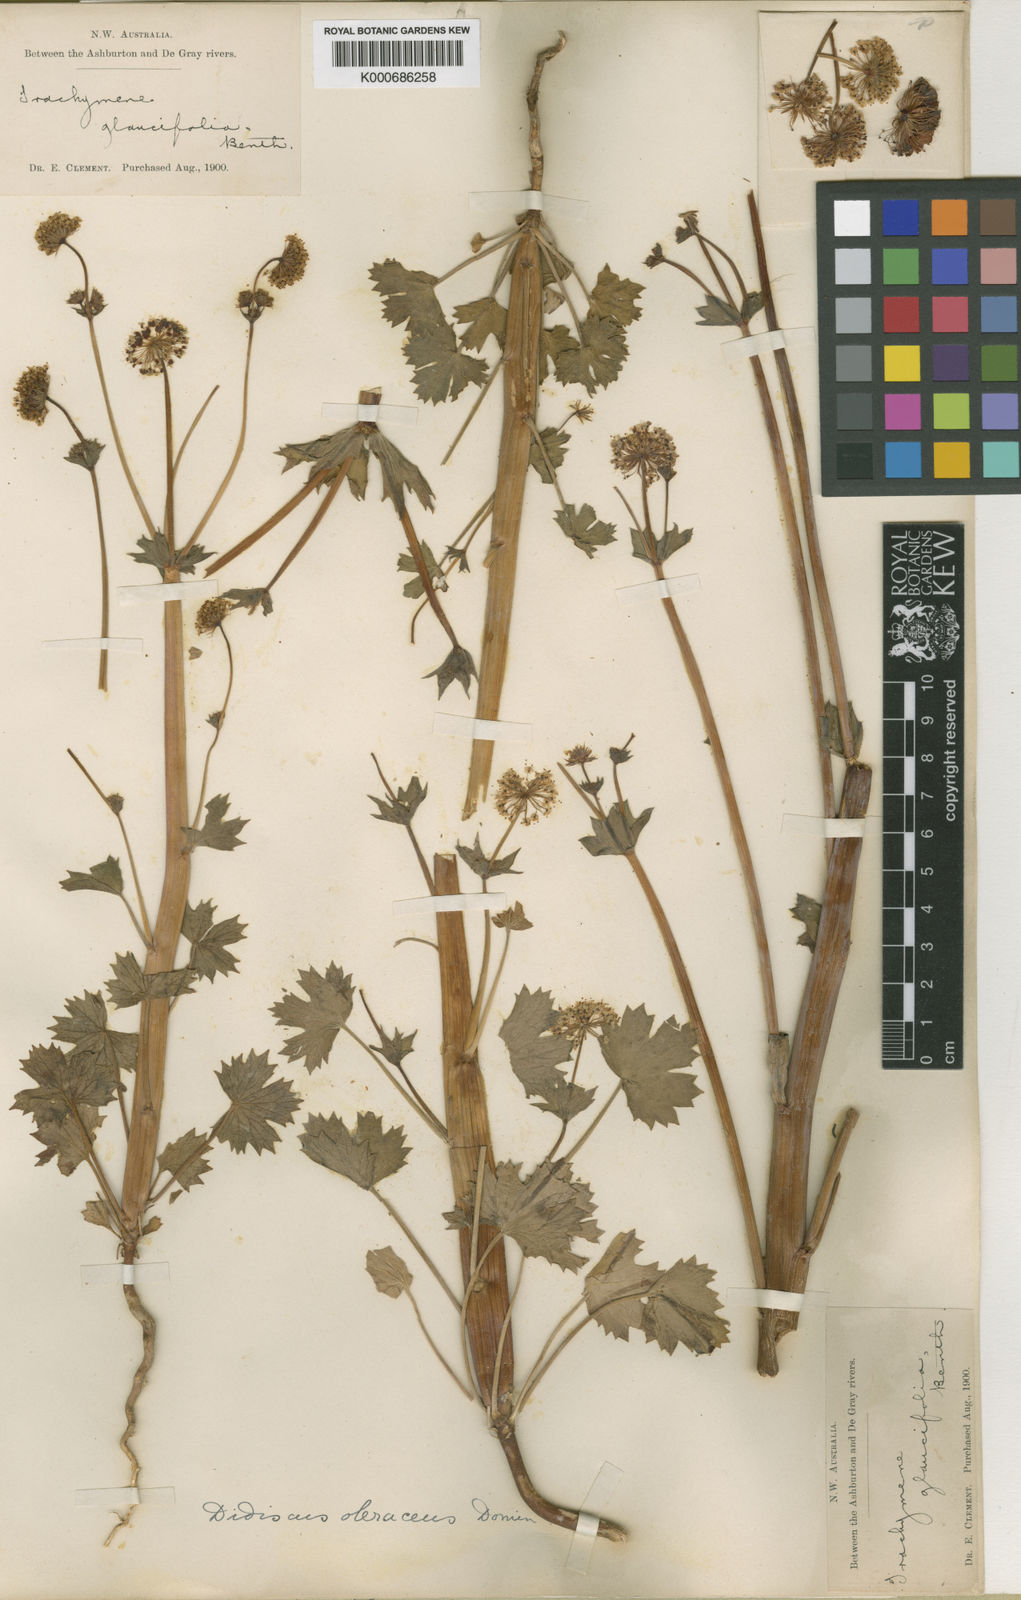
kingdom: Plantae
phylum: Tracheophyta
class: Magnoliopsida
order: Apiales
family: Araliaceae
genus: Trachymene
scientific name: Trachymene oleracea
